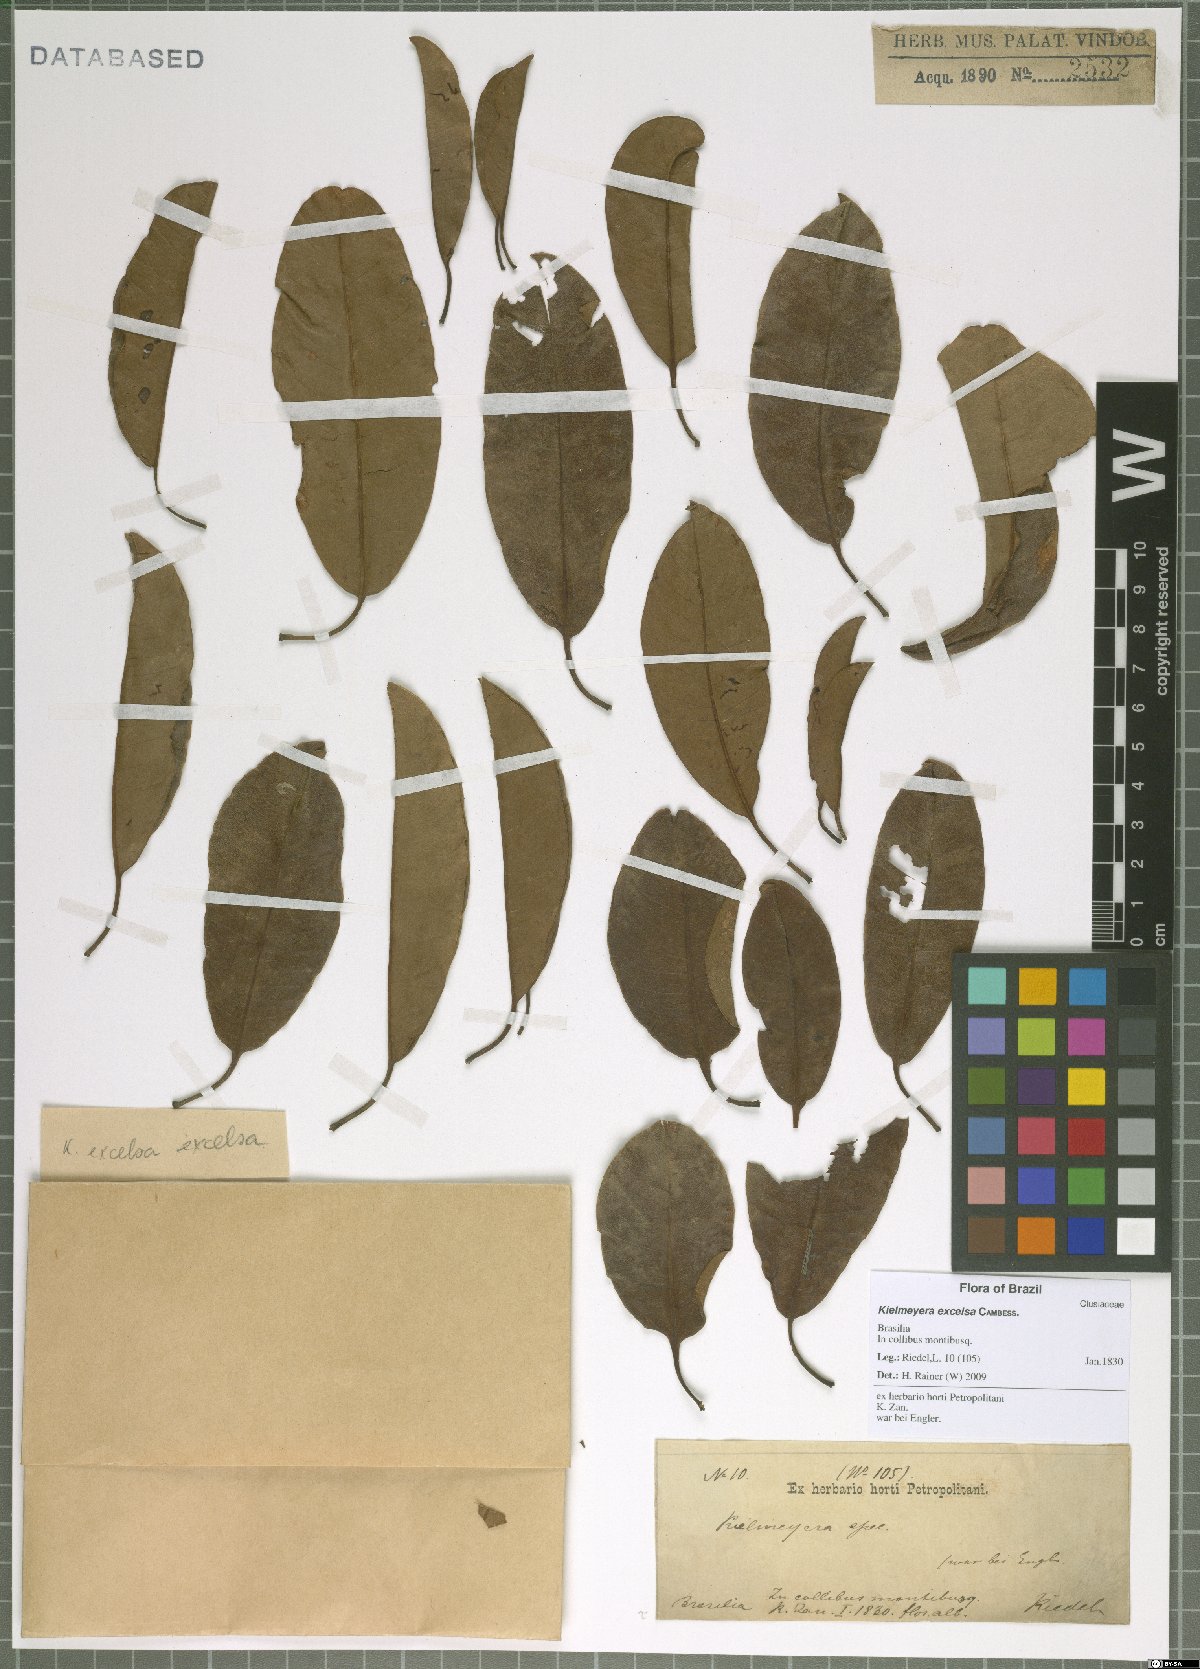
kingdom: Plantae
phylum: Tracheophyta
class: Magnoliopsida
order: Malpighiales
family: Calophyllaceae
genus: Kielmeyera
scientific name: Kielmeyera excelsa
